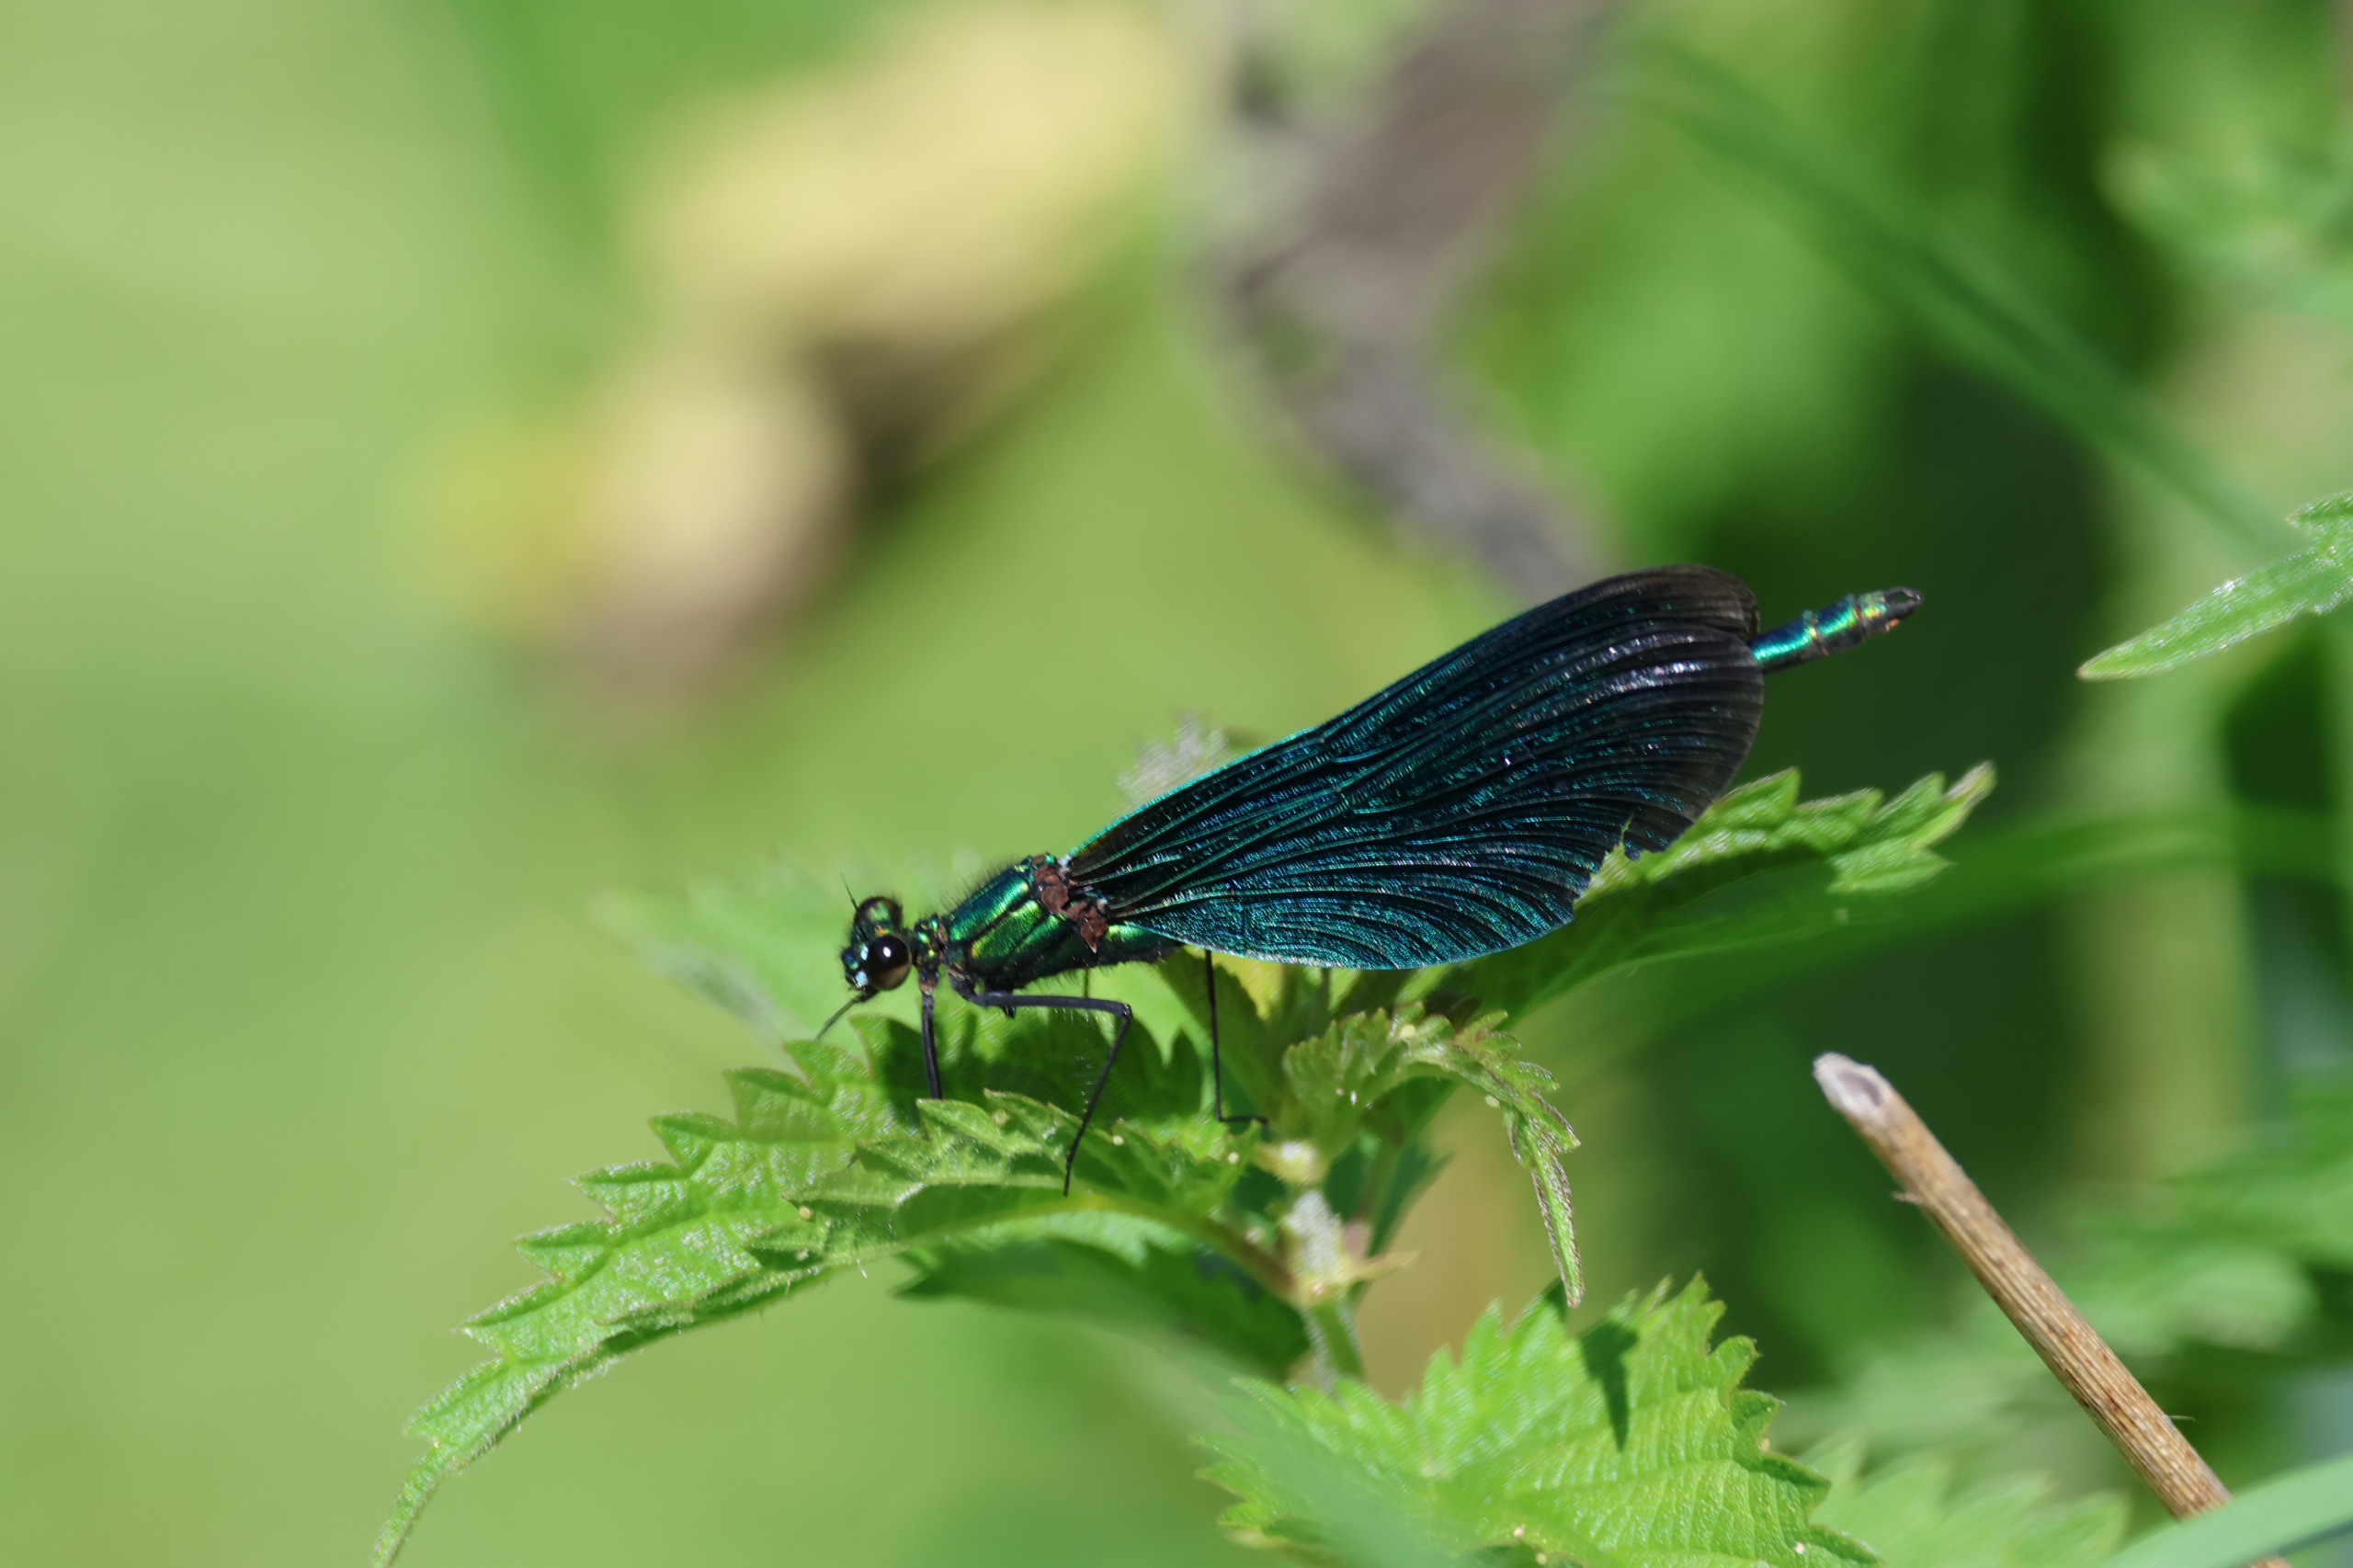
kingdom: Animalia
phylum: Arthropoda
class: Insecta
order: Odonata
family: Calopterygidae
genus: Calopteryx
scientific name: Calopteryx virgo
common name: Blåvinget pragtvandnymfe
